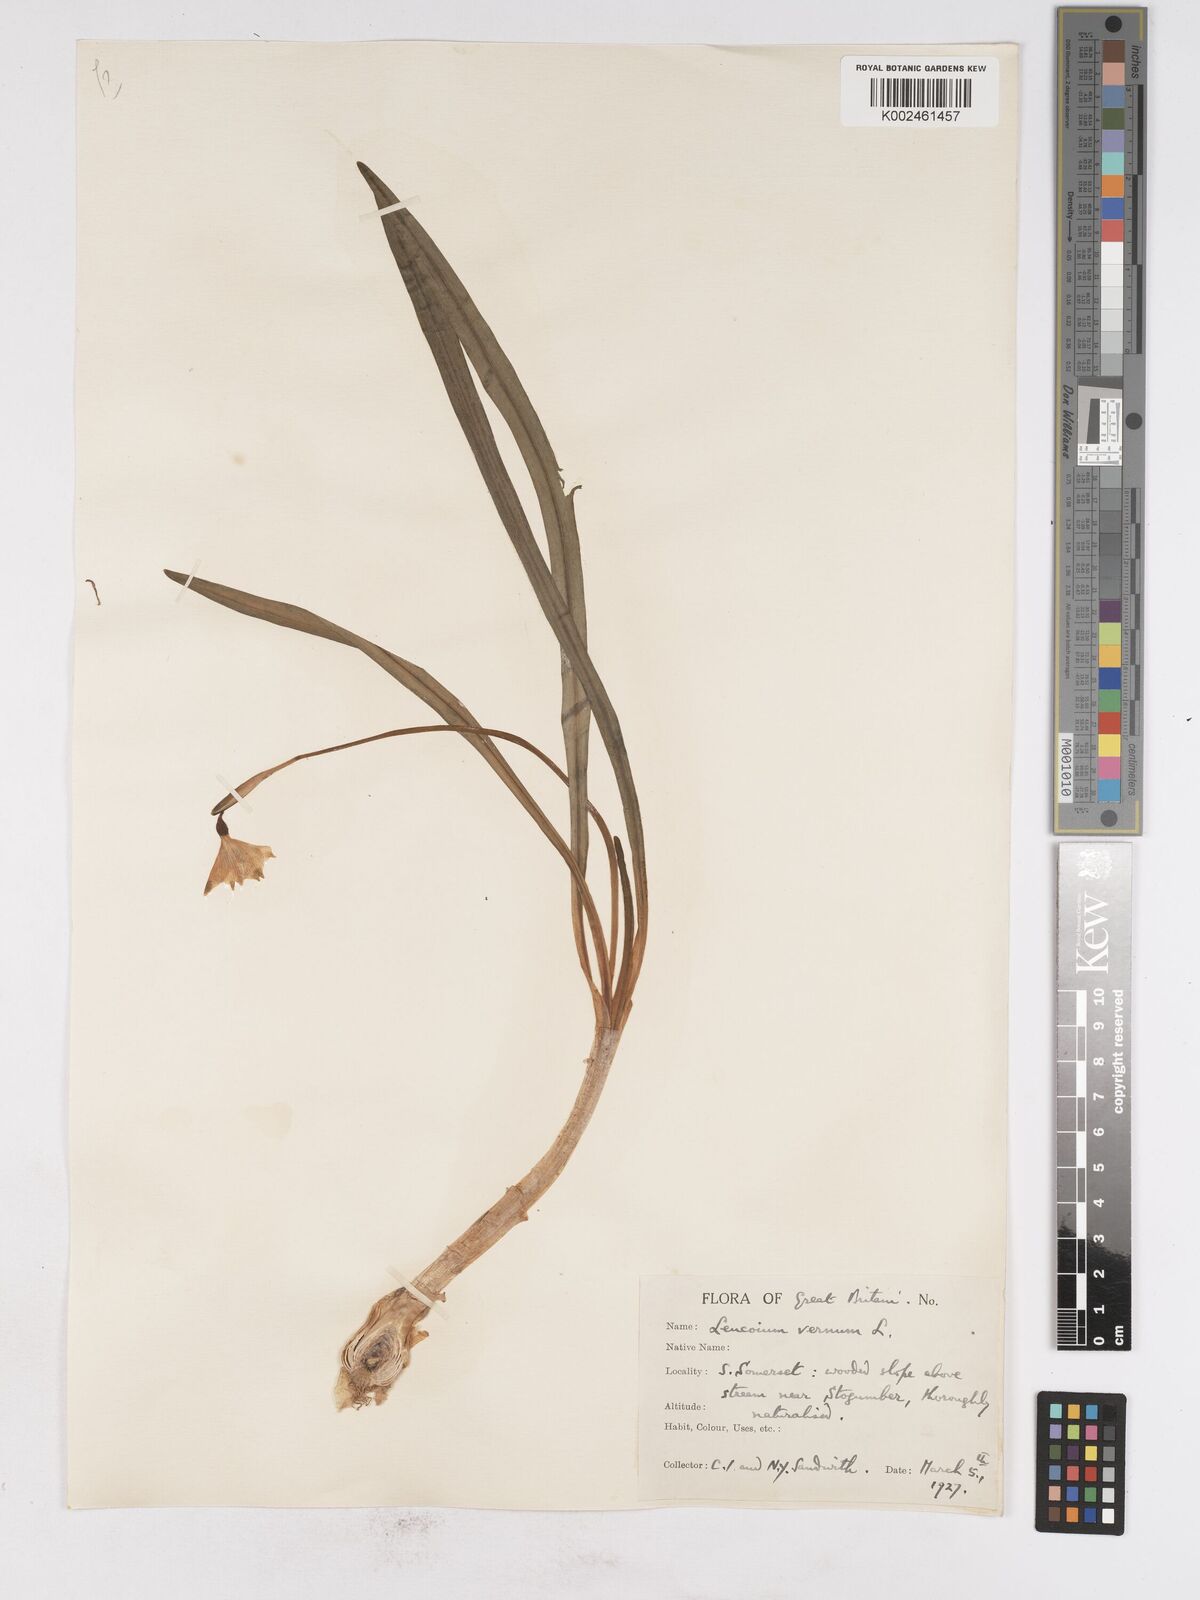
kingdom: Plantae
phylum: Tracheophyta
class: Liliopsida
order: Asparagales
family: Amaryllidaceae
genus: Leucojum
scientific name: Leucojum vernum
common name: Spring snowflake
